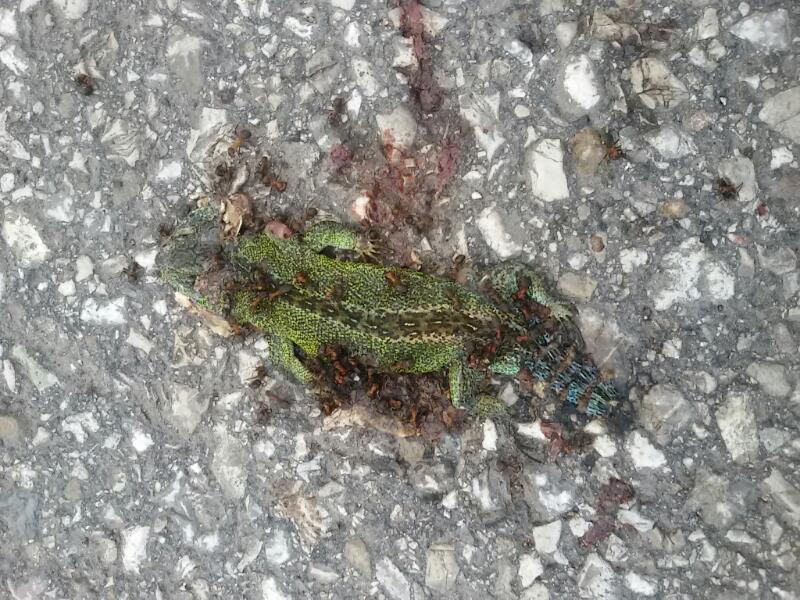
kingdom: Animalia
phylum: Chordata
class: Squamata
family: Lacertidae
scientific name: Lacertidae
